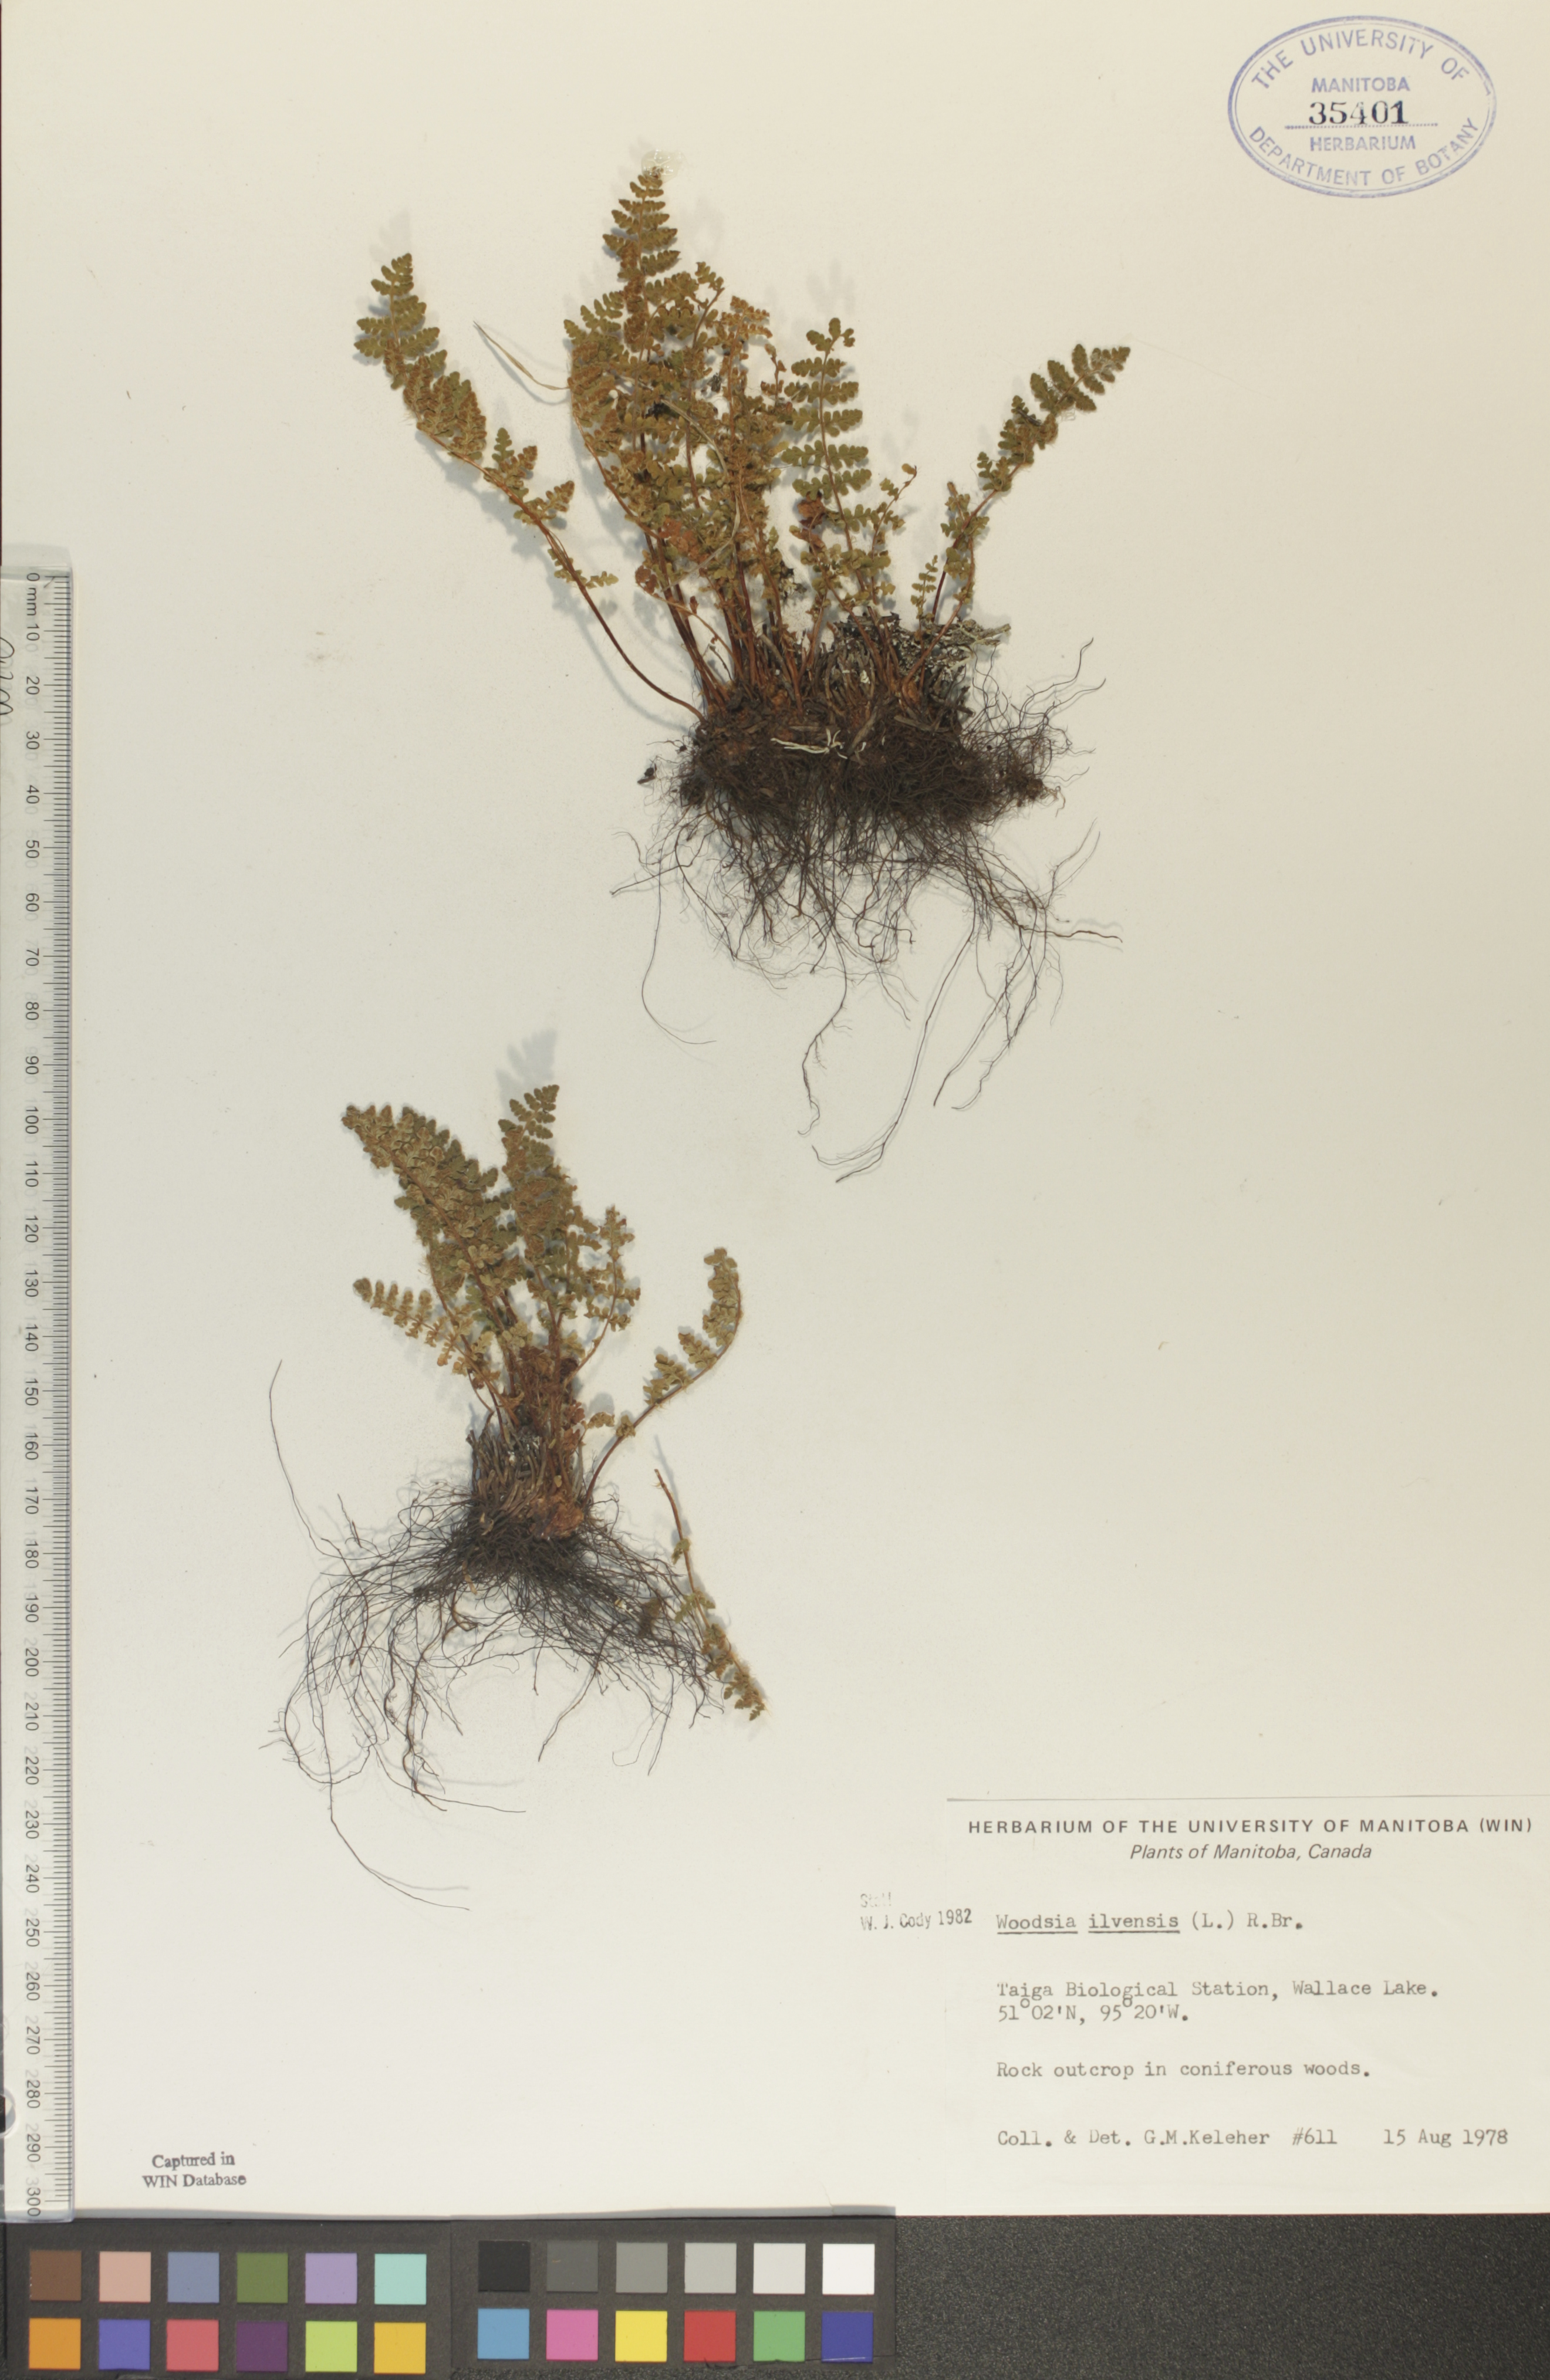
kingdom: Plantae
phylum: Tracheophyta
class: Polypodiopsida
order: Polypodiales
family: Woodsiaceae
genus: Woodsia
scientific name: Woodsia ilvensis
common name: Fragrant woodsia
